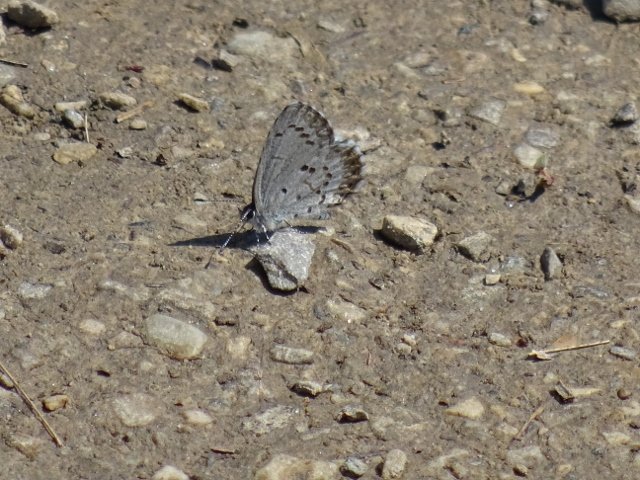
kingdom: Animalia
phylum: Arthropoda
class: Insecta
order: Lepidoptera
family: Lycaenidae
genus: Celastrina
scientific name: Celastrina lucia
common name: Northern Spring Azure
